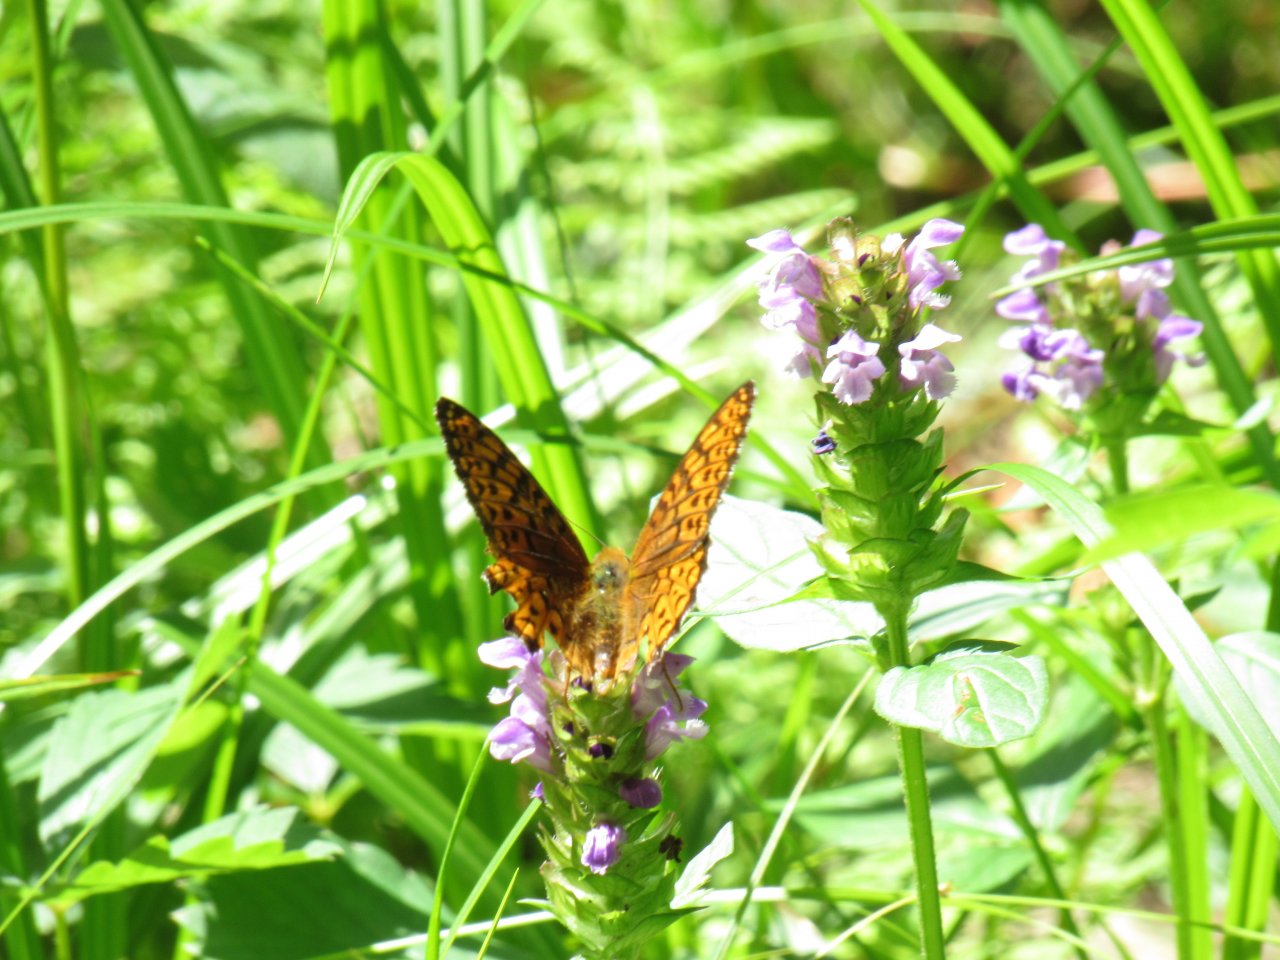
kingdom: Animalia
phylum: Arthropoda
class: Insecta
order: Lepidoptera
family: Nymphalidae
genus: Speyeria
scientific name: Speyeria atlantis
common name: Atlantis Fritillary
